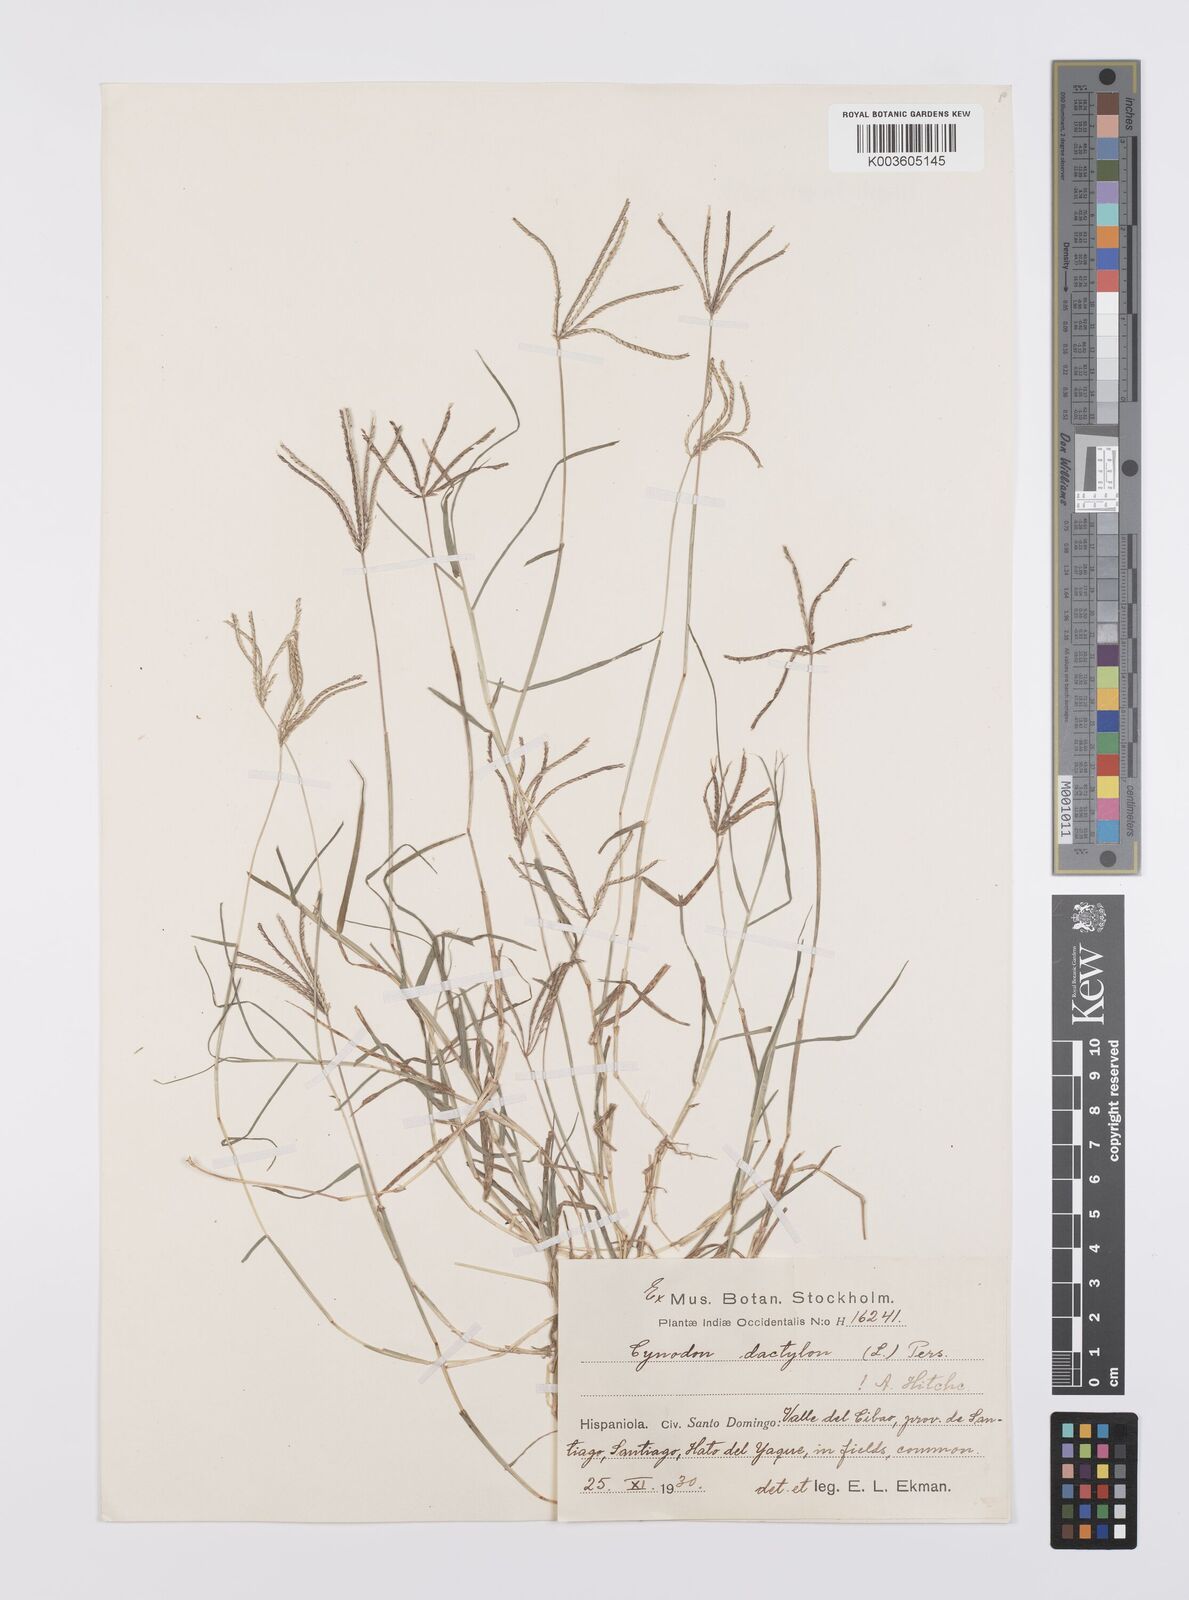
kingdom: Plantae
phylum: Tracheophyta
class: Liliopsida
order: Poales
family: Poaceae
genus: Cynodon
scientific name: Cynodon dactylon
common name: Bermuda grass
